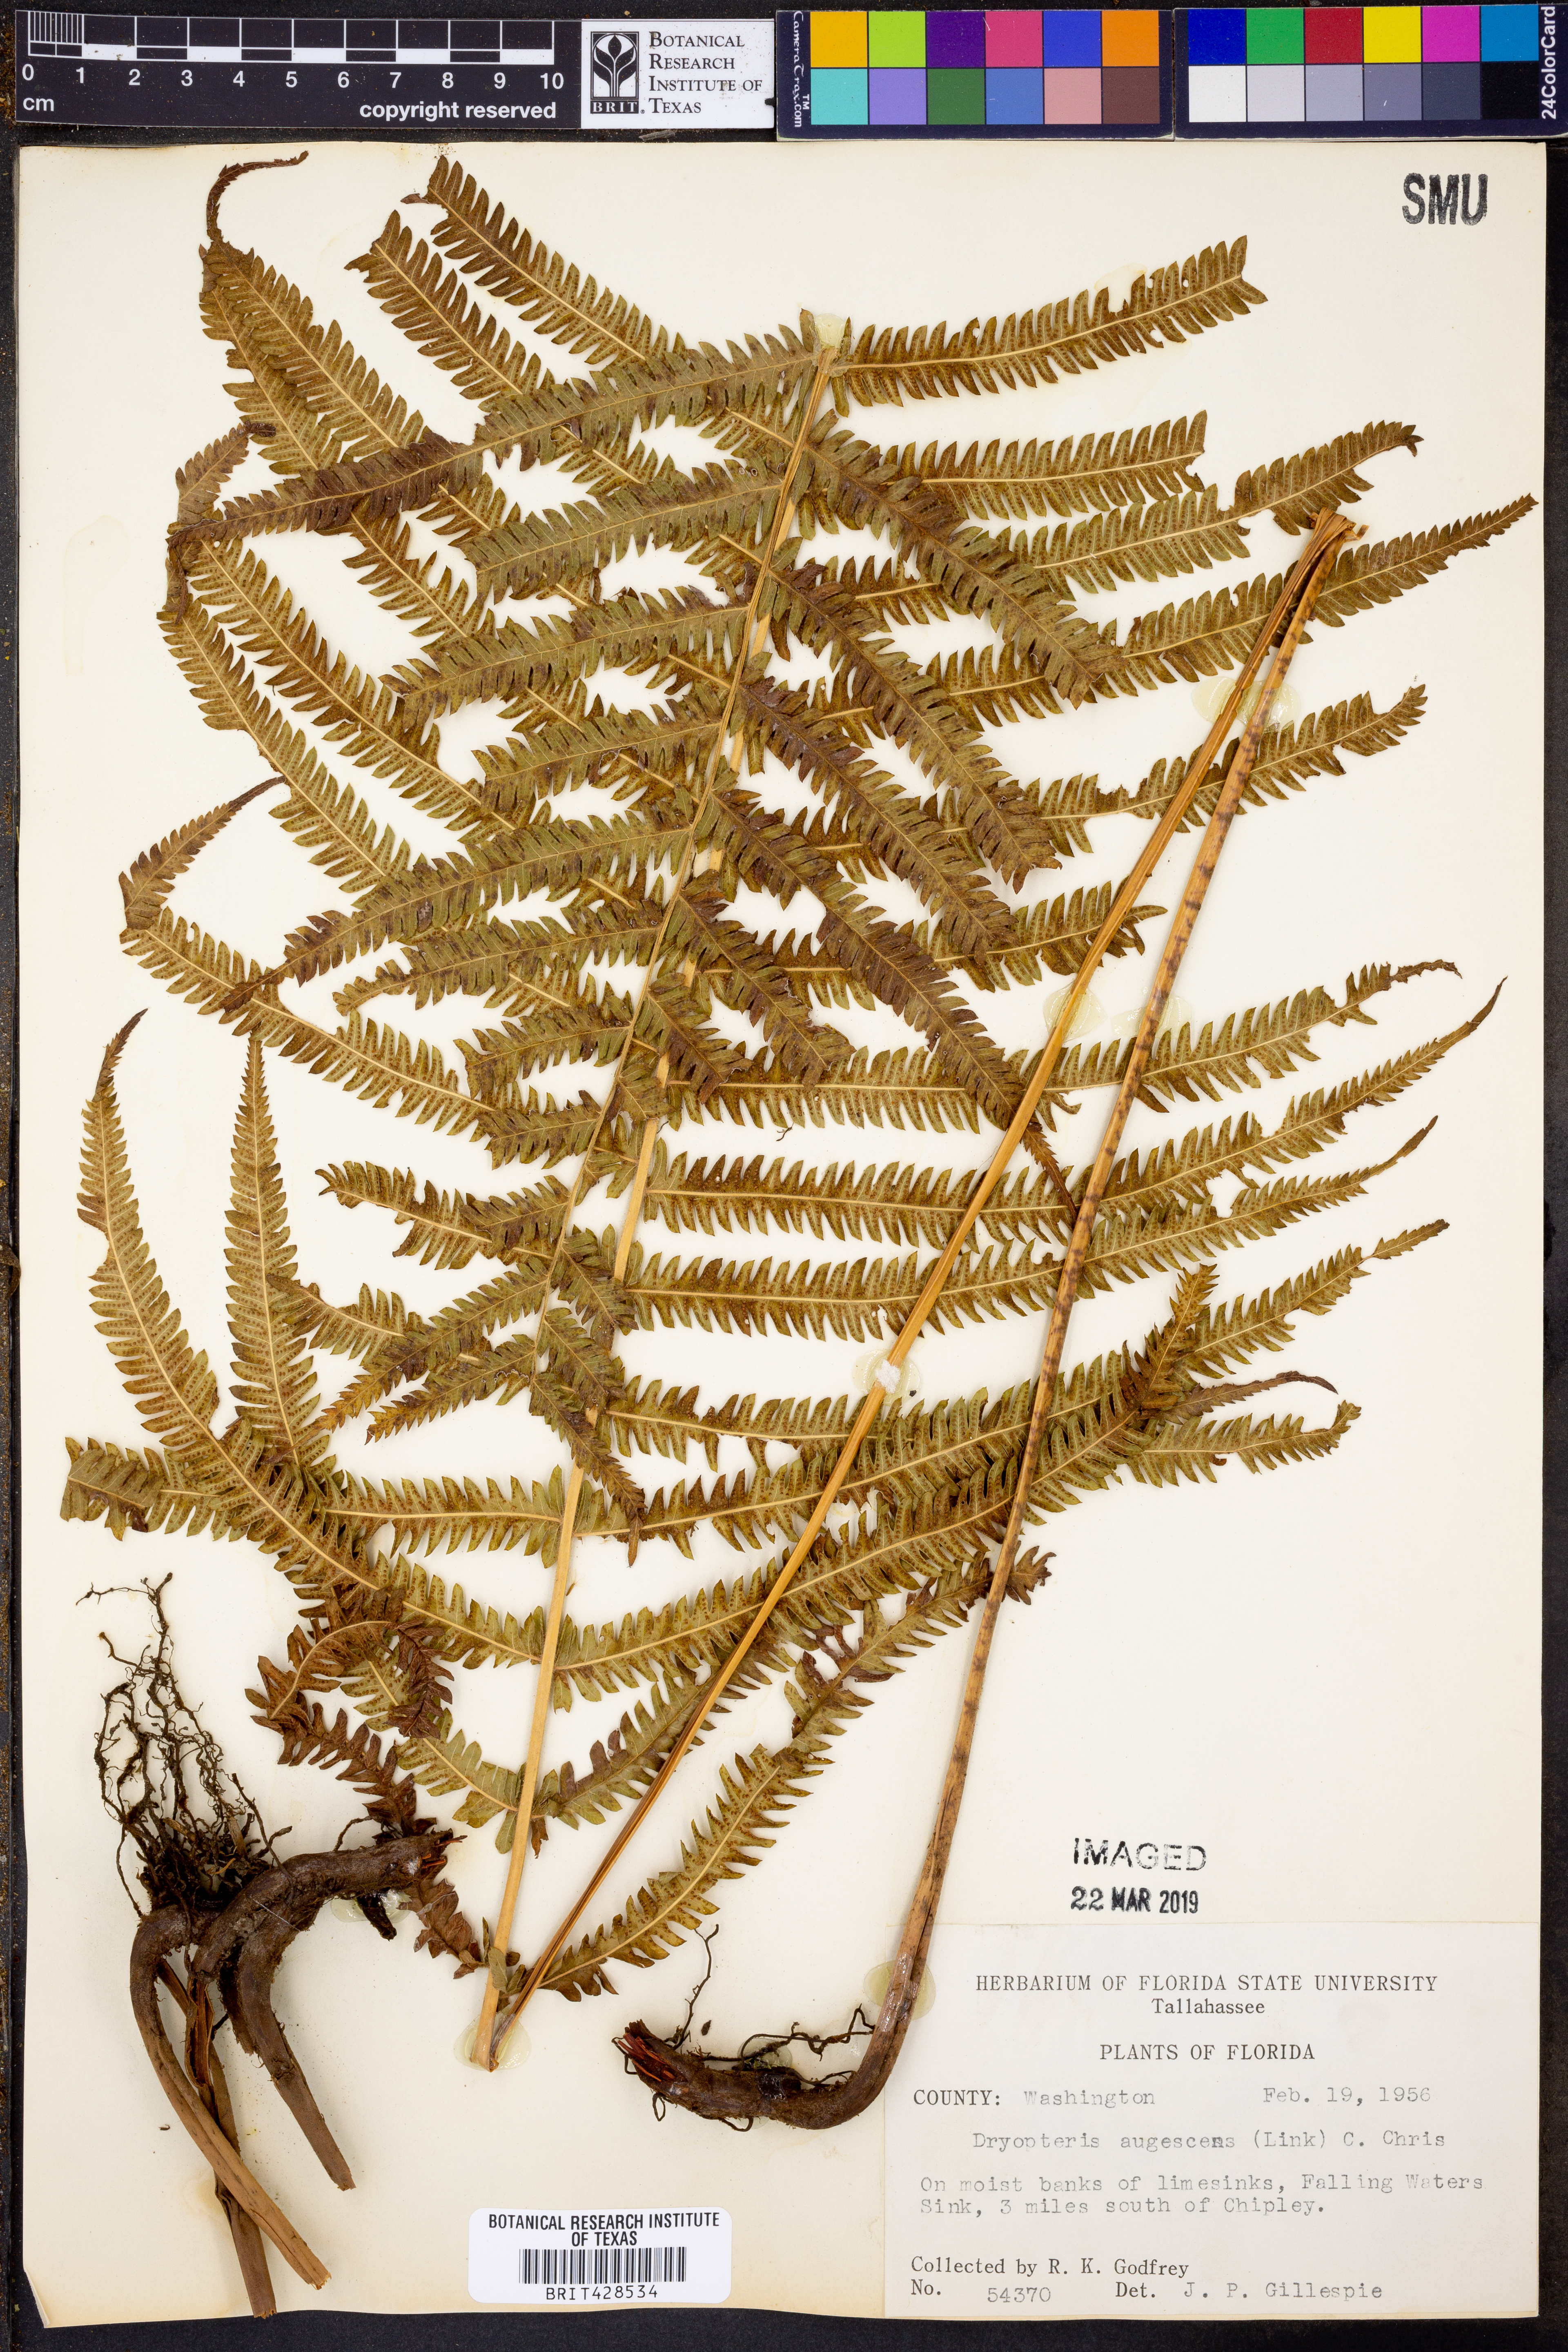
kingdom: Plantae
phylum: Tracheophyta
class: Polypodiopsida
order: Polypodiales
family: Thelypteridaceae
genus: Pelazoneuron
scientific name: Pelazoneuron augescens
